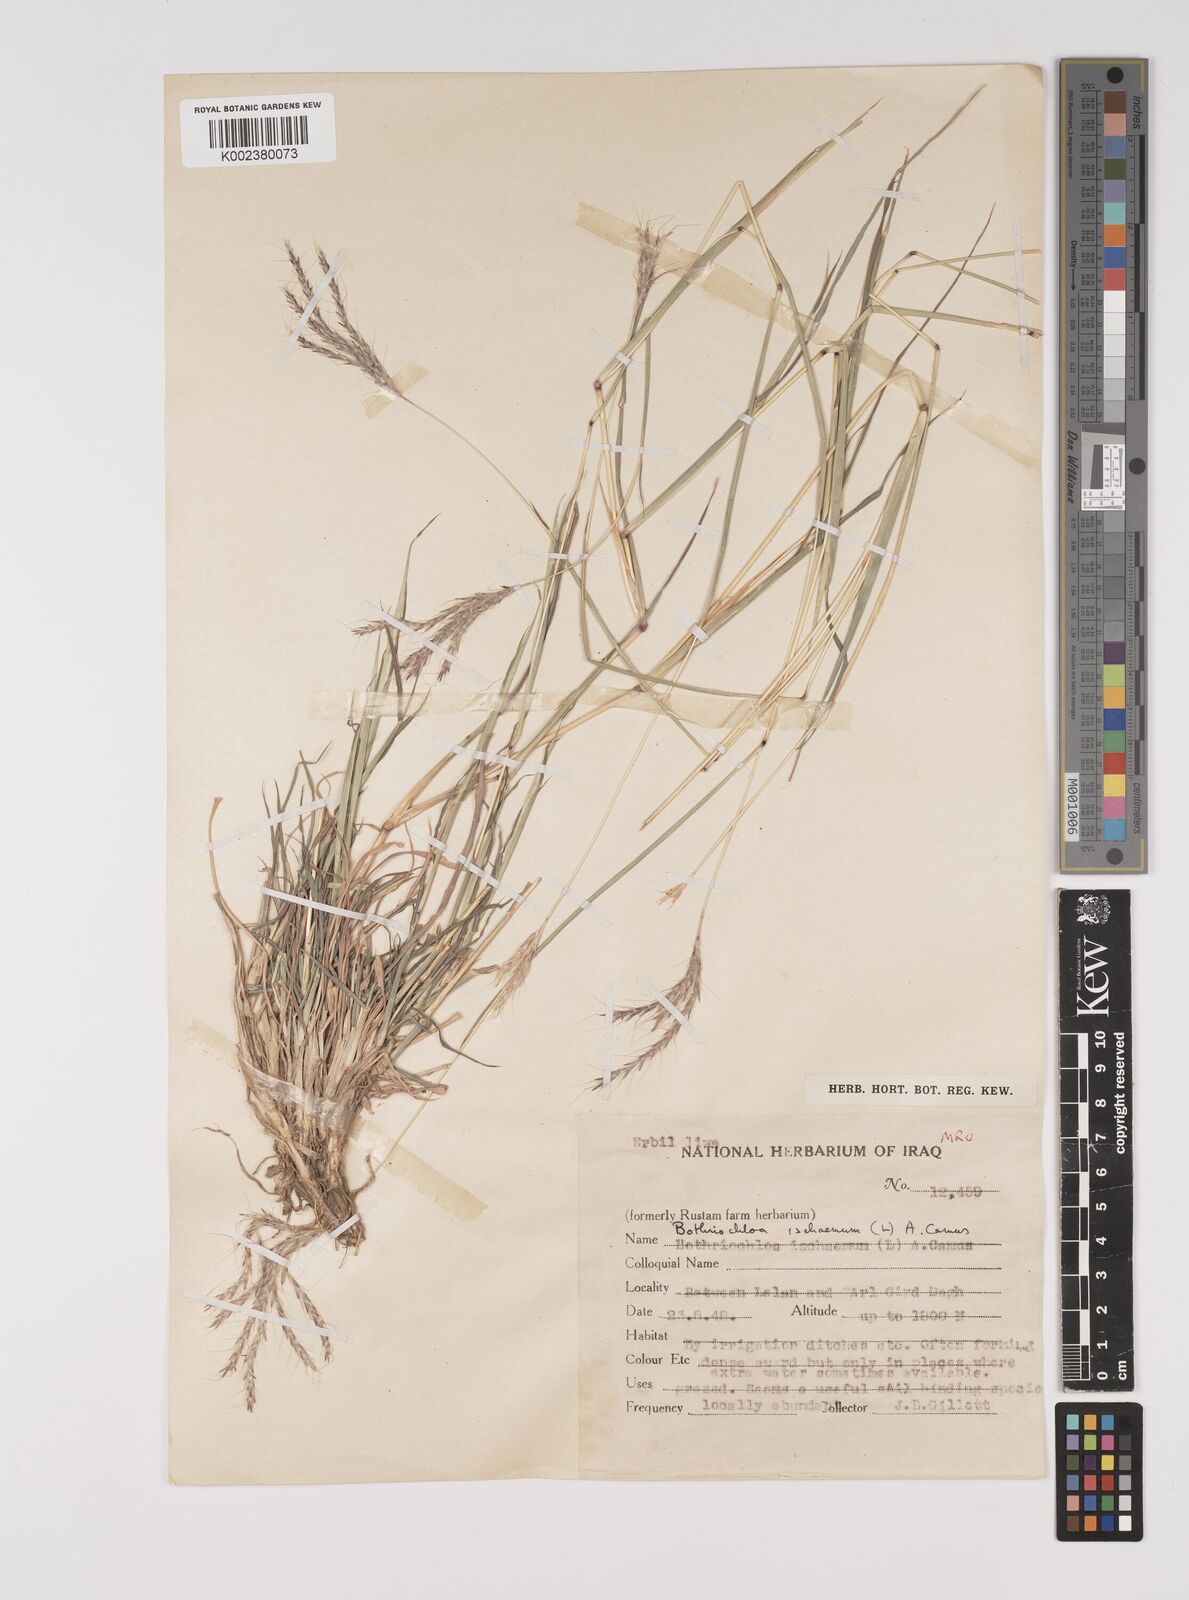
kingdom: Plantae
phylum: Tracheophyta
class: Liliopsida
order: Poales
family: Poaceae
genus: Bothriochloa
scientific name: Bothriochloa ischaemum
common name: Yellow bluestem
